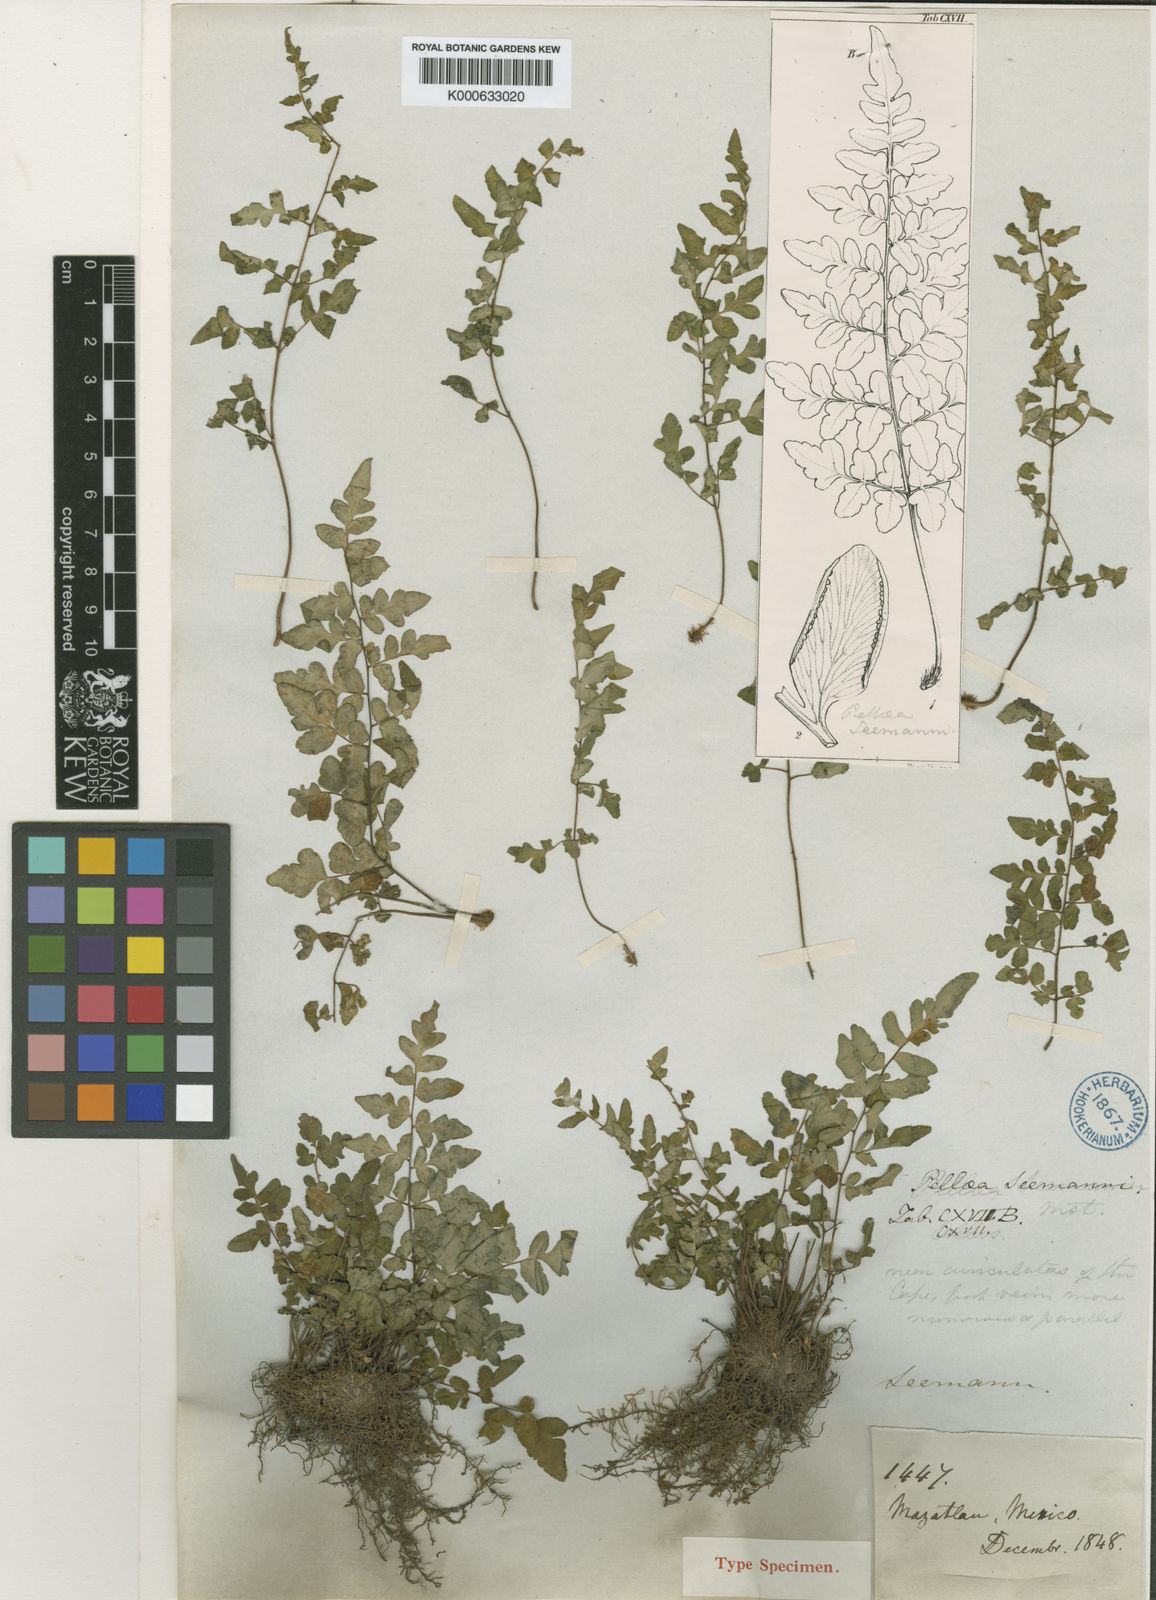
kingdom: Plantae
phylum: Tracheophyta
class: Polypodiopsida
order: Polypodiales
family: Pteridaceae
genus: Cheilanthes
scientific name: Cheilanthes lozanoi
